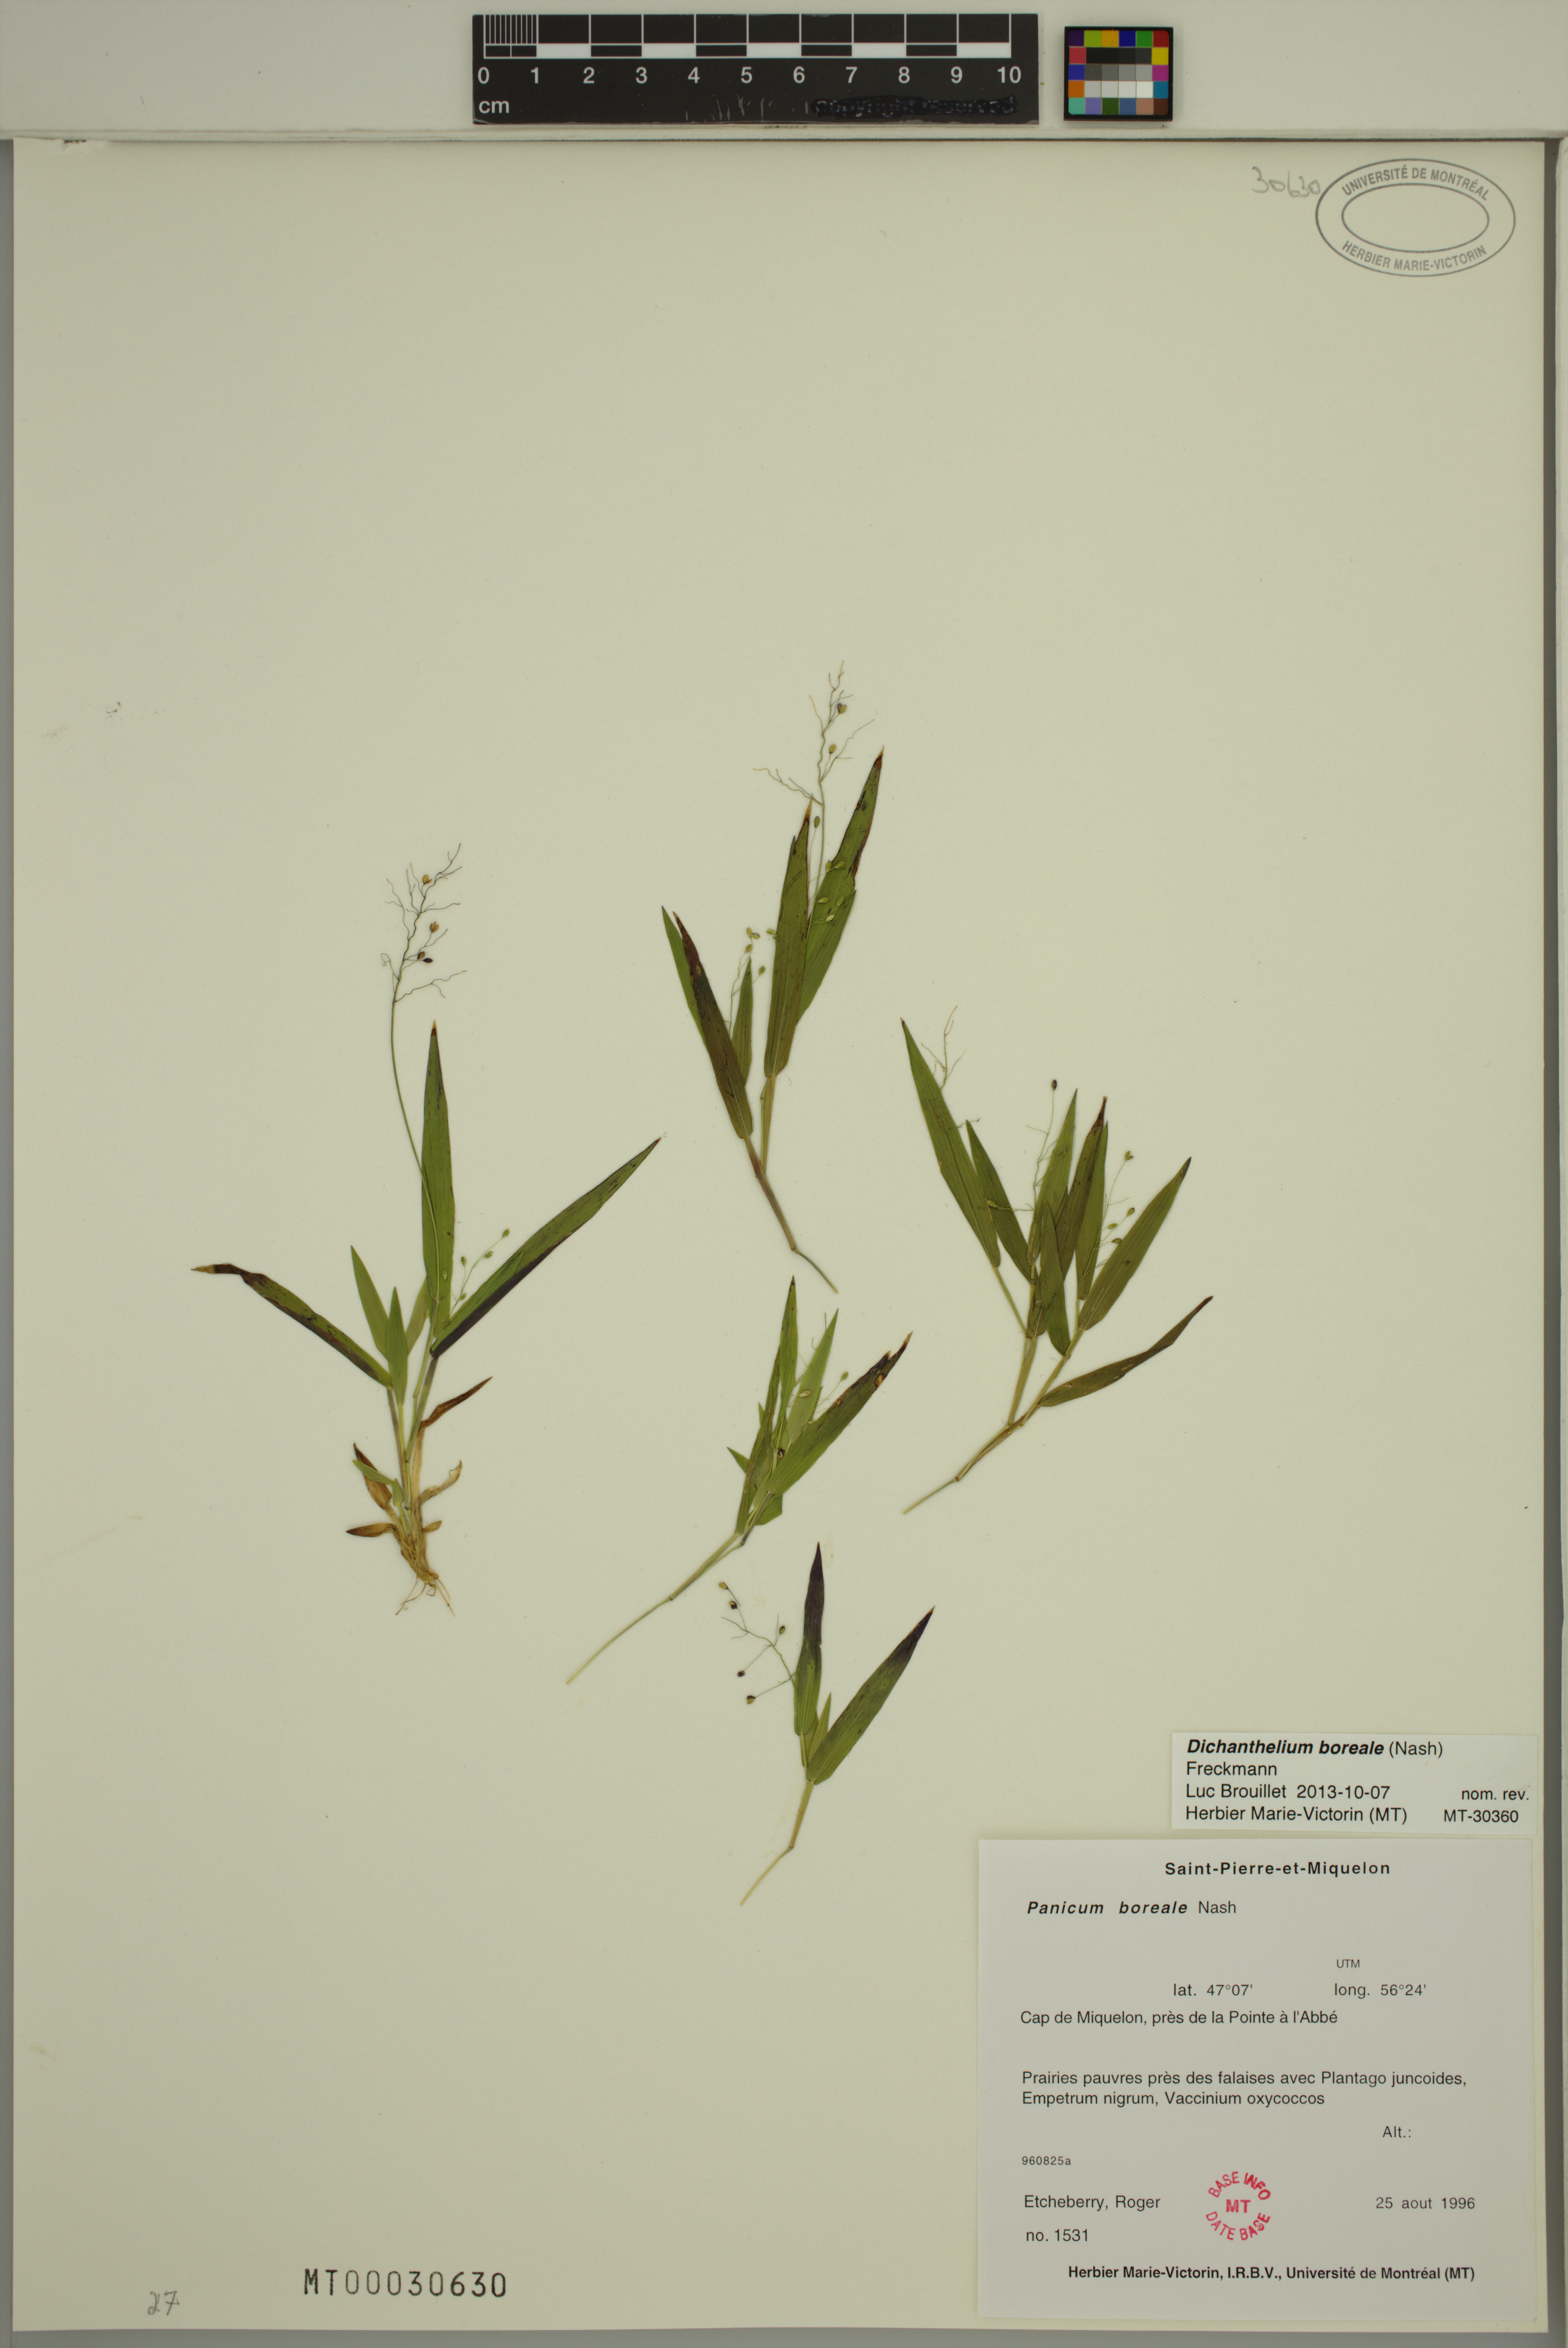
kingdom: Plantae
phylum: Tracheophyta
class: Liliopsida
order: Poales
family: Poaceae
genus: Dichanthelium
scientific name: Dichanthelium boreale
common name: Northern panicgrass
